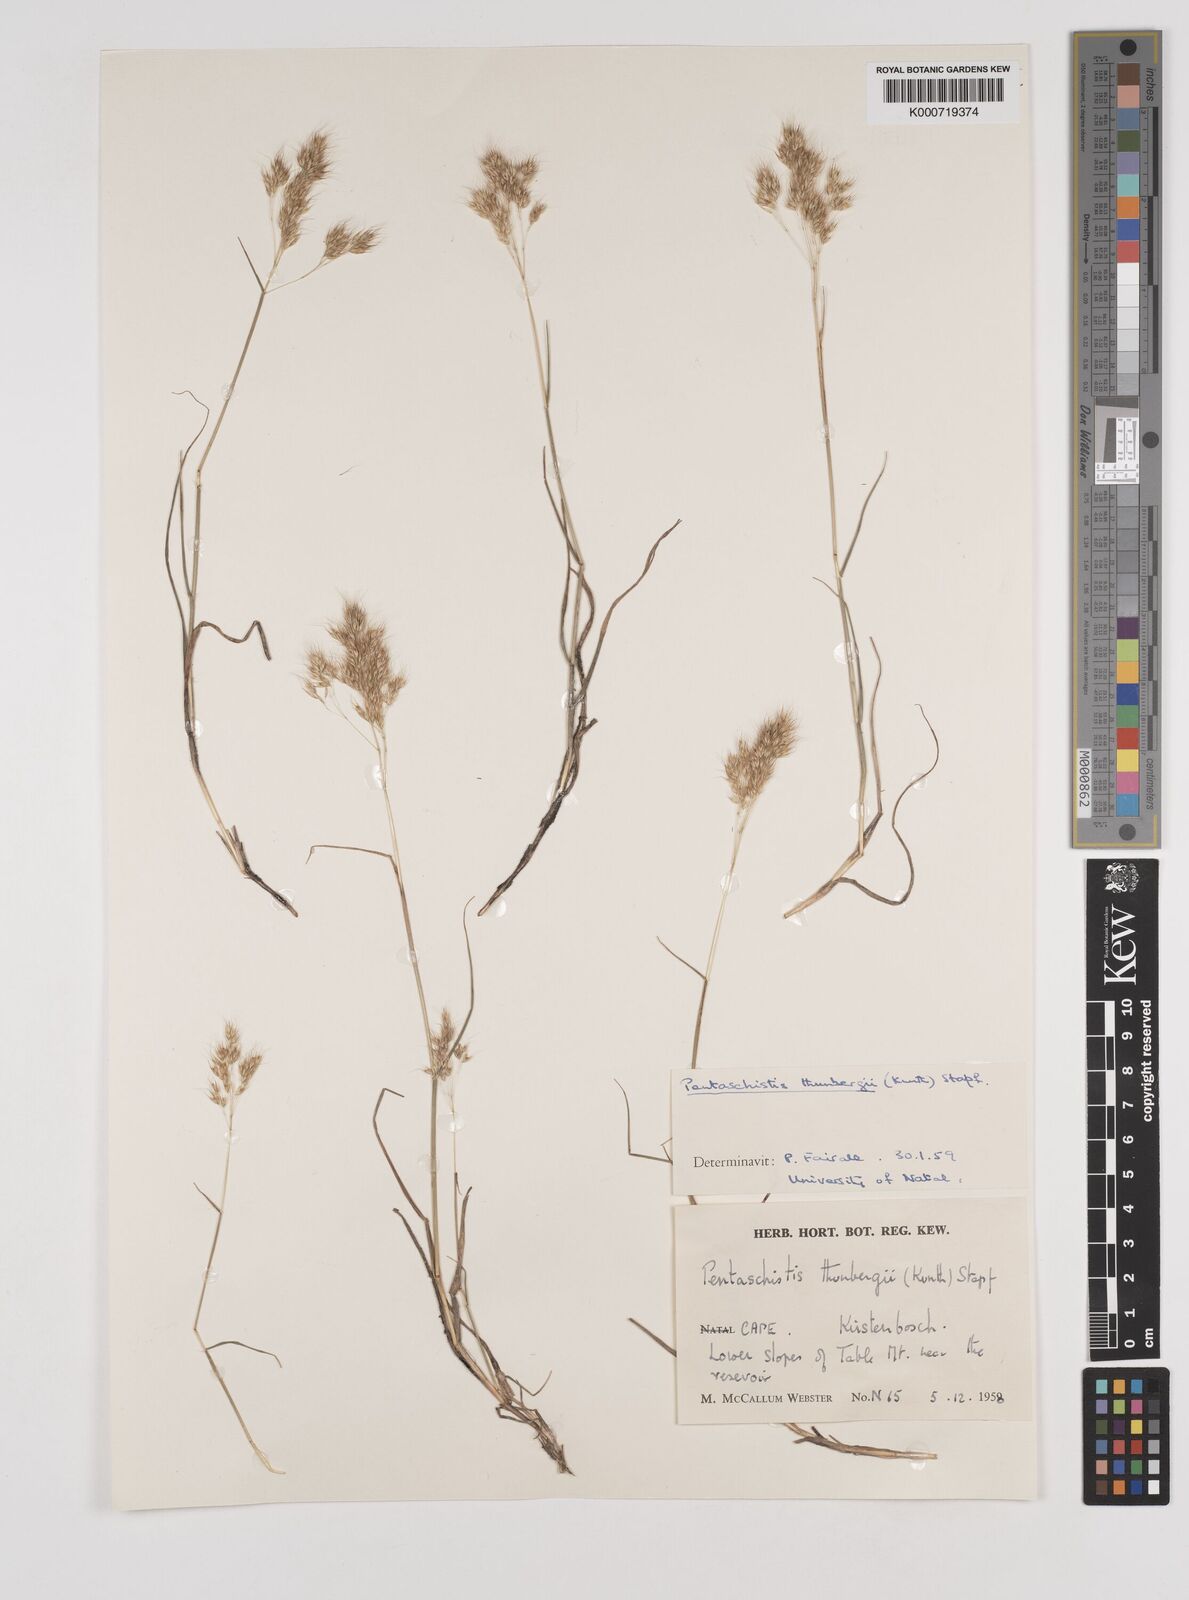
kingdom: Plantae
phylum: Tracheophyta
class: Liliopsida
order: Poales
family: Poaceae
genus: Pentameris
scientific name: Pentameris triseta
